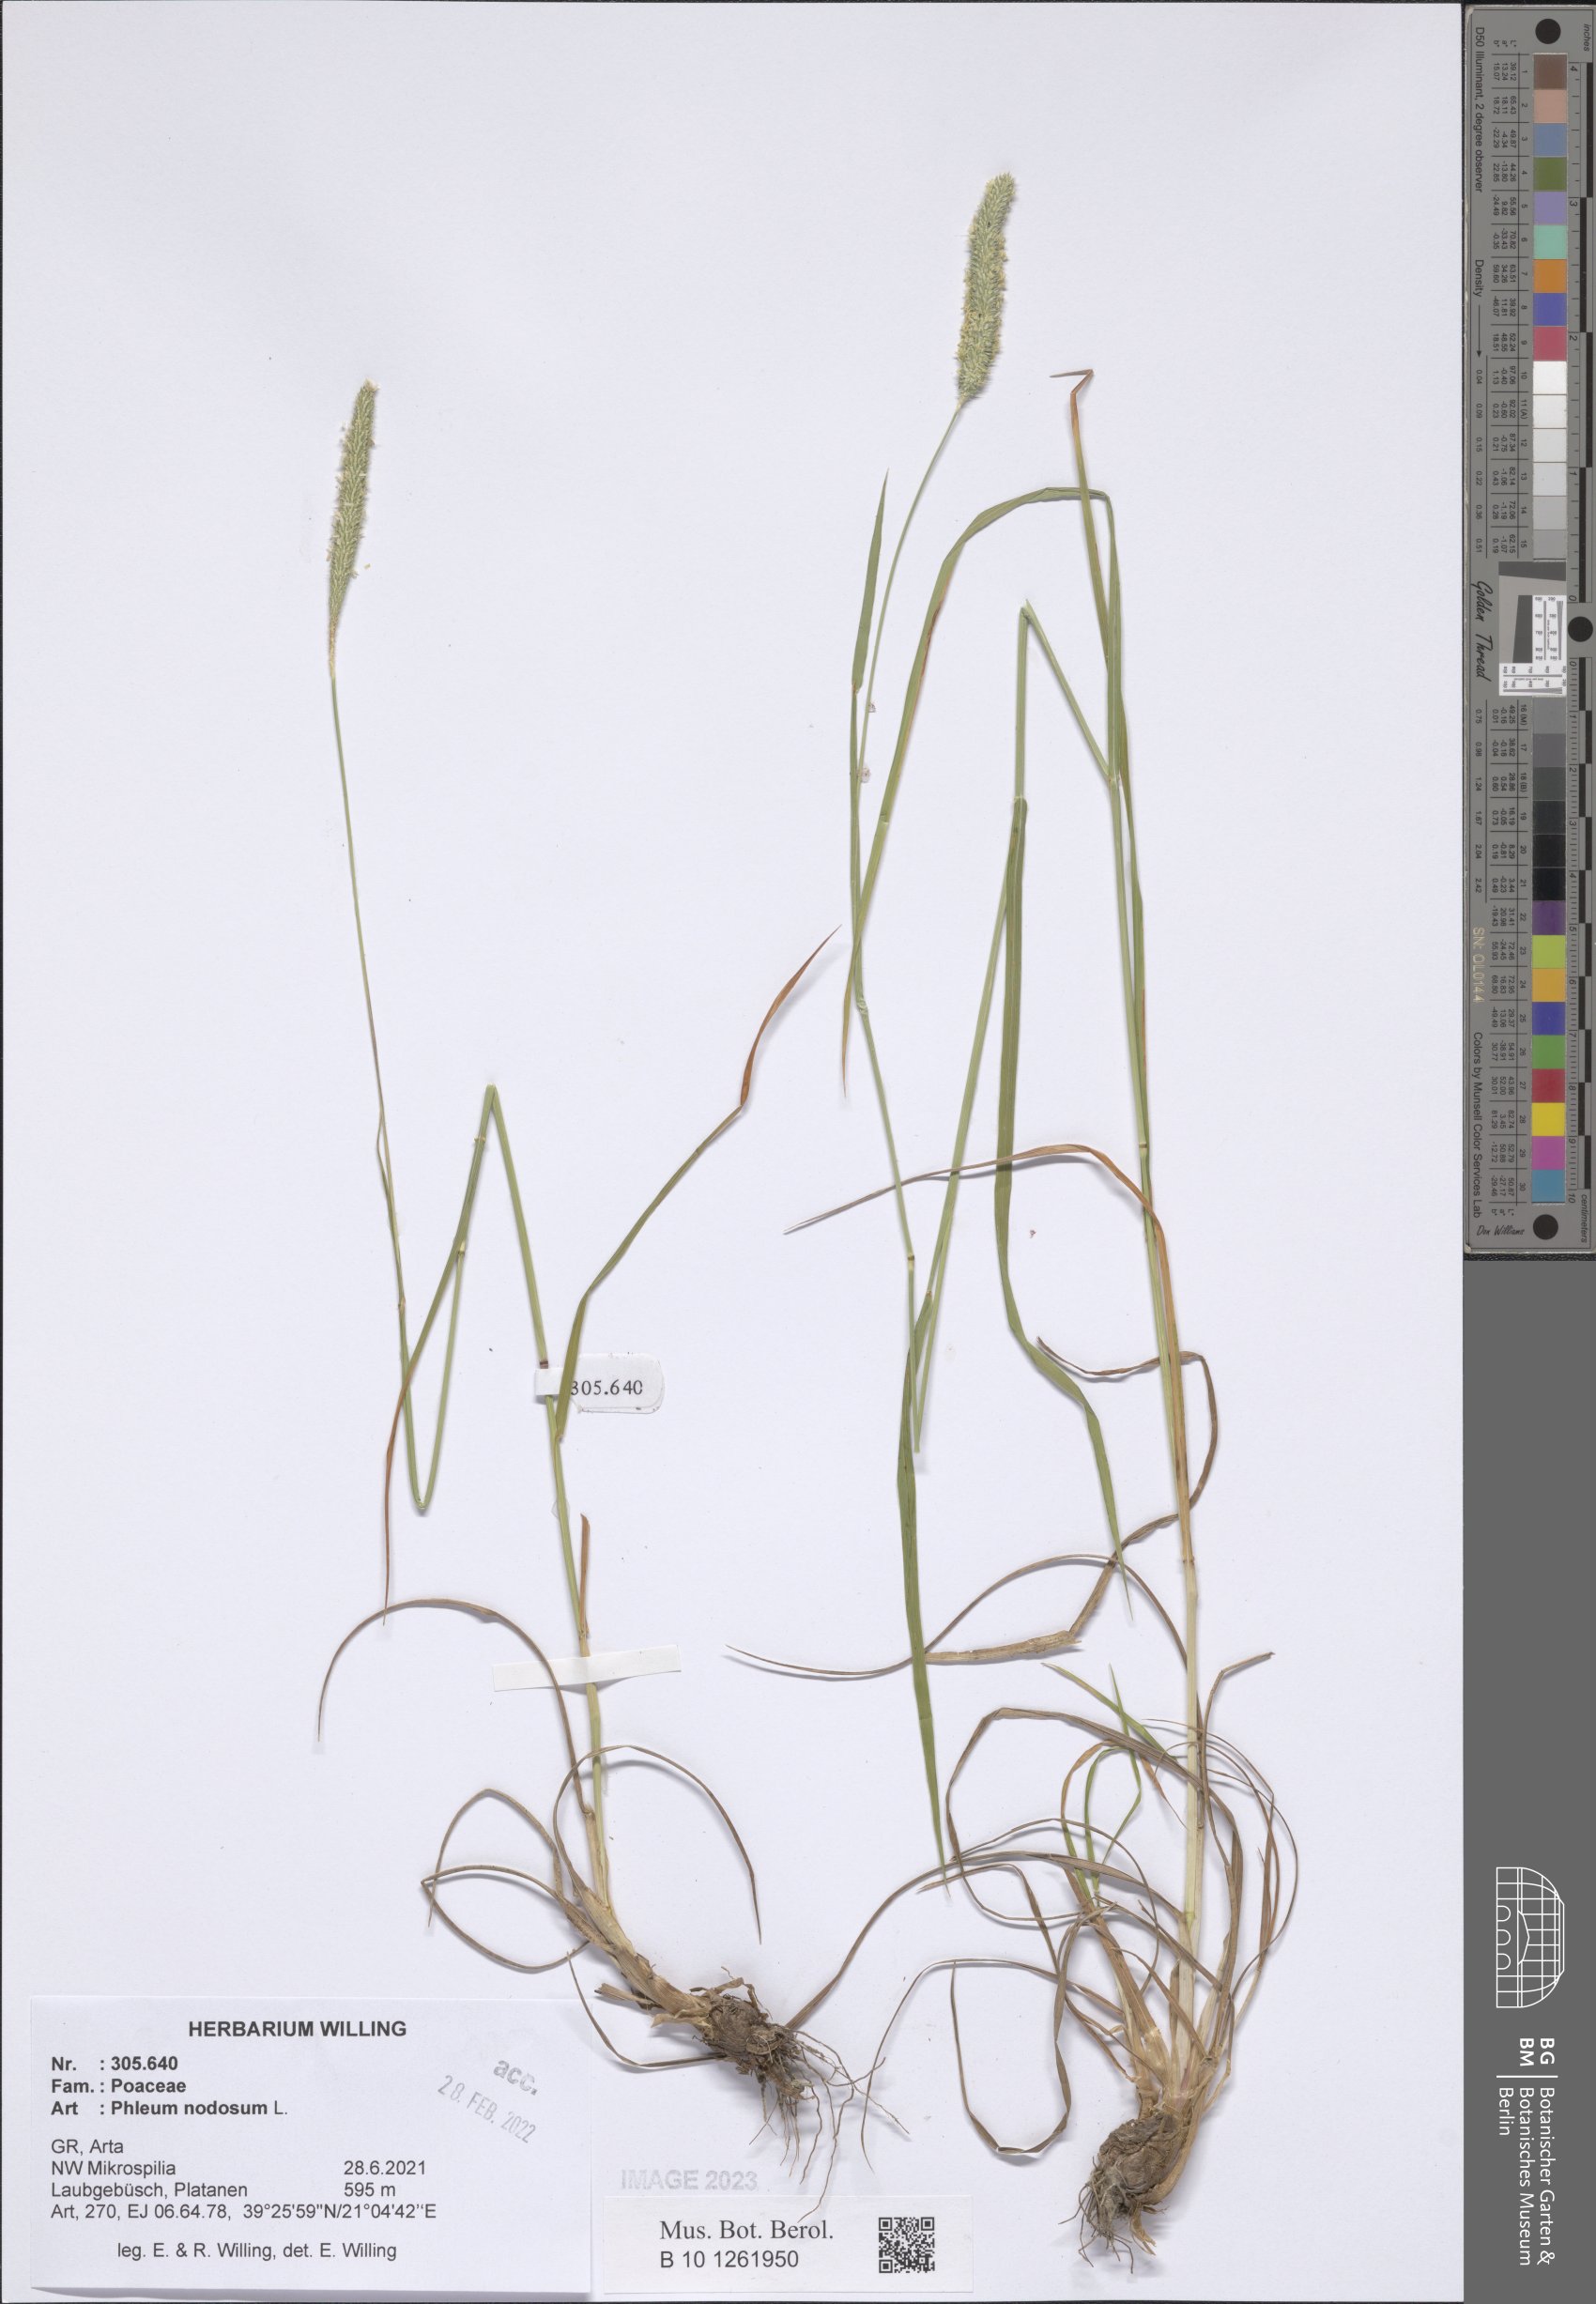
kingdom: Plantae
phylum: Tracheophyta
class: Liliopsida
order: Poales
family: Poaceae
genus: Phleum
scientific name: Phleum pratense
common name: Timothy grass
